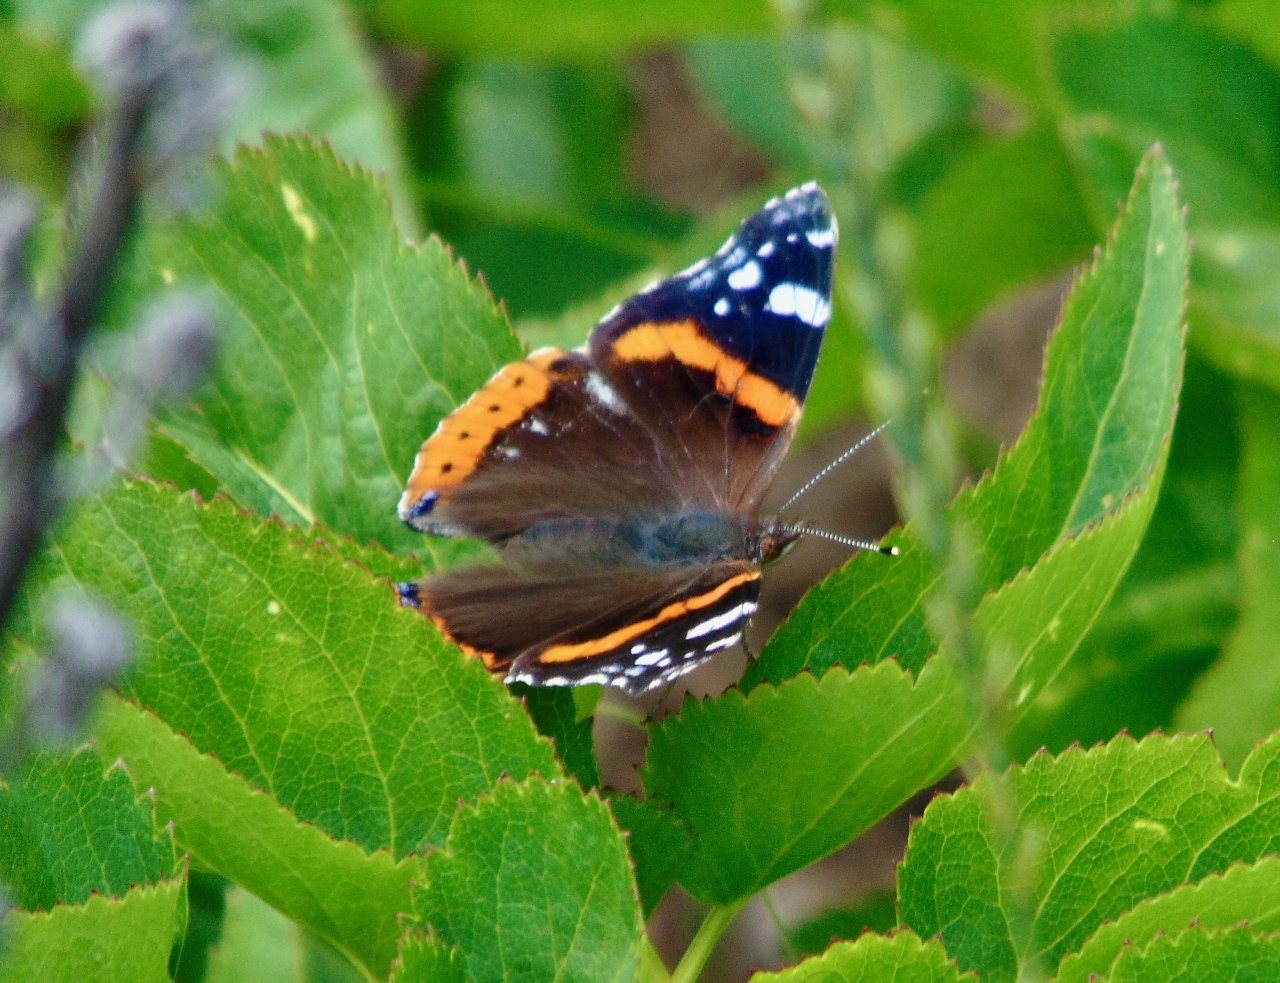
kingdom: Animalia
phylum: Arthropoda
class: Insecta
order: Lepidoptera
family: Nymphalidae
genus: Vanessa
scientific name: Vanessa atalanta
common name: Red Admiral
